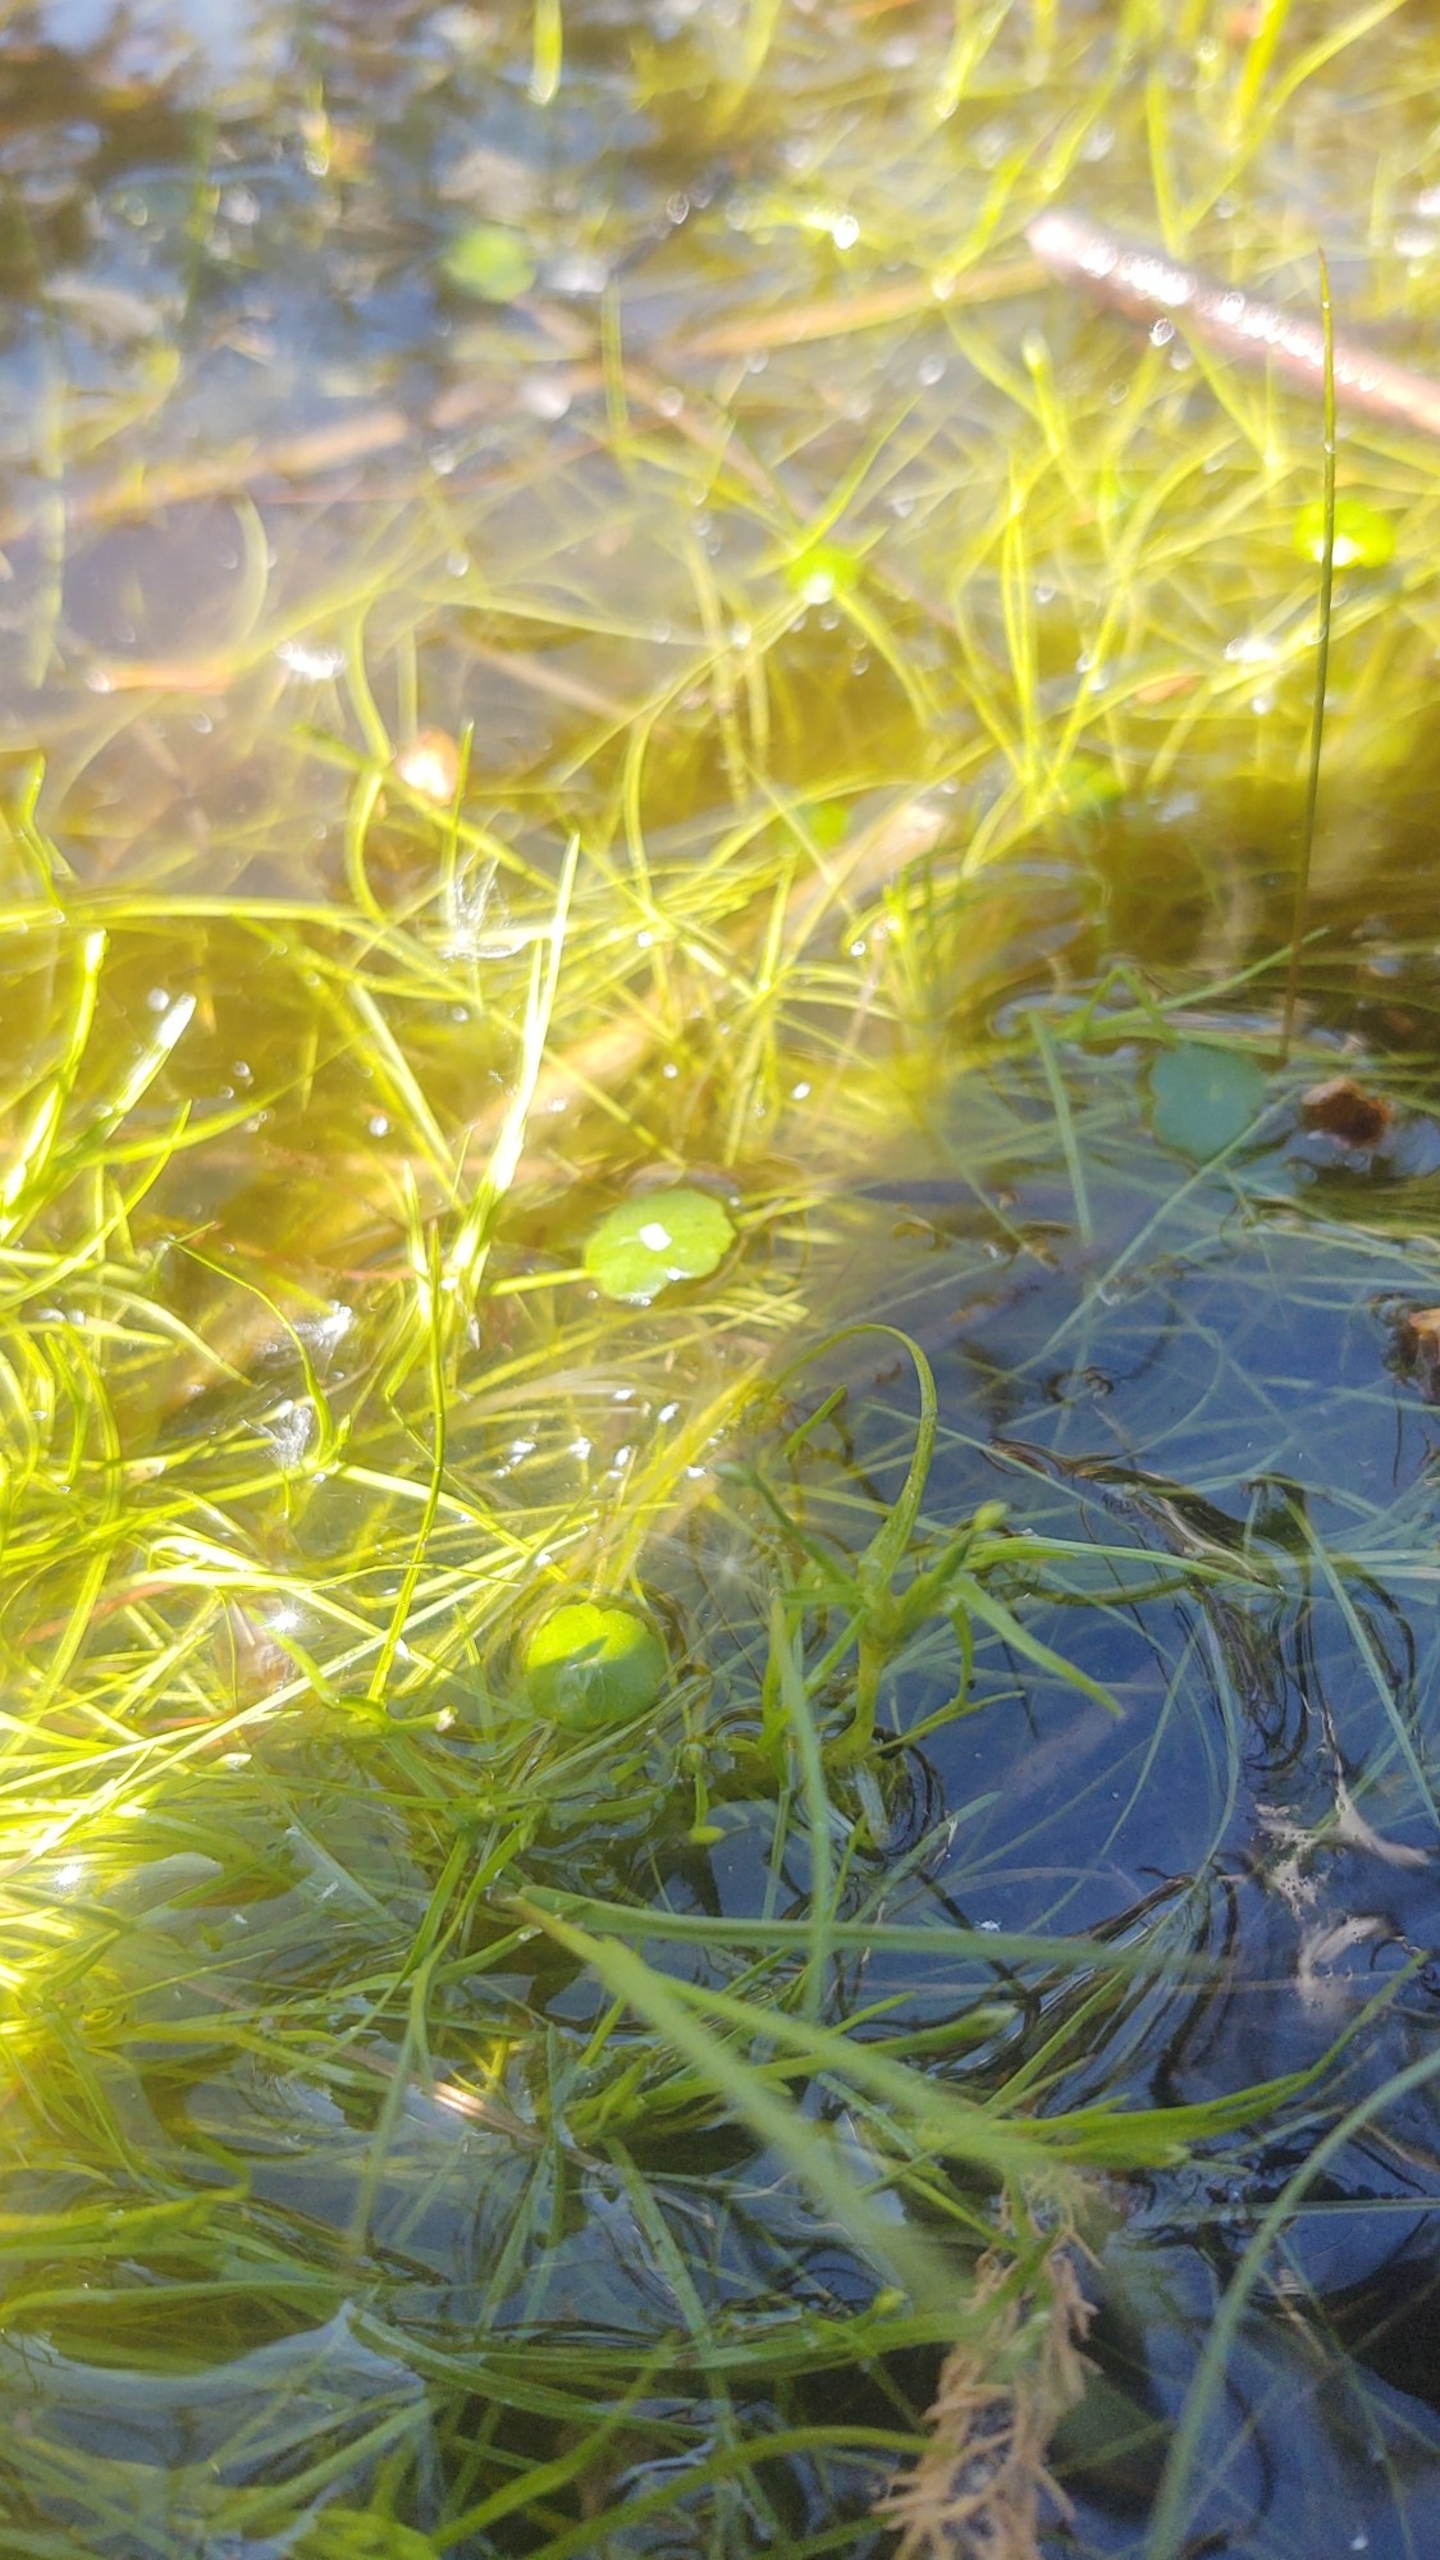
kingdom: Plantae
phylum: Tracheophyta
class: Liliopsida
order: Poales
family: Cyperaceae
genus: Isolepis
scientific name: Isolepis fluitans
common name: Flydende kogleaks
